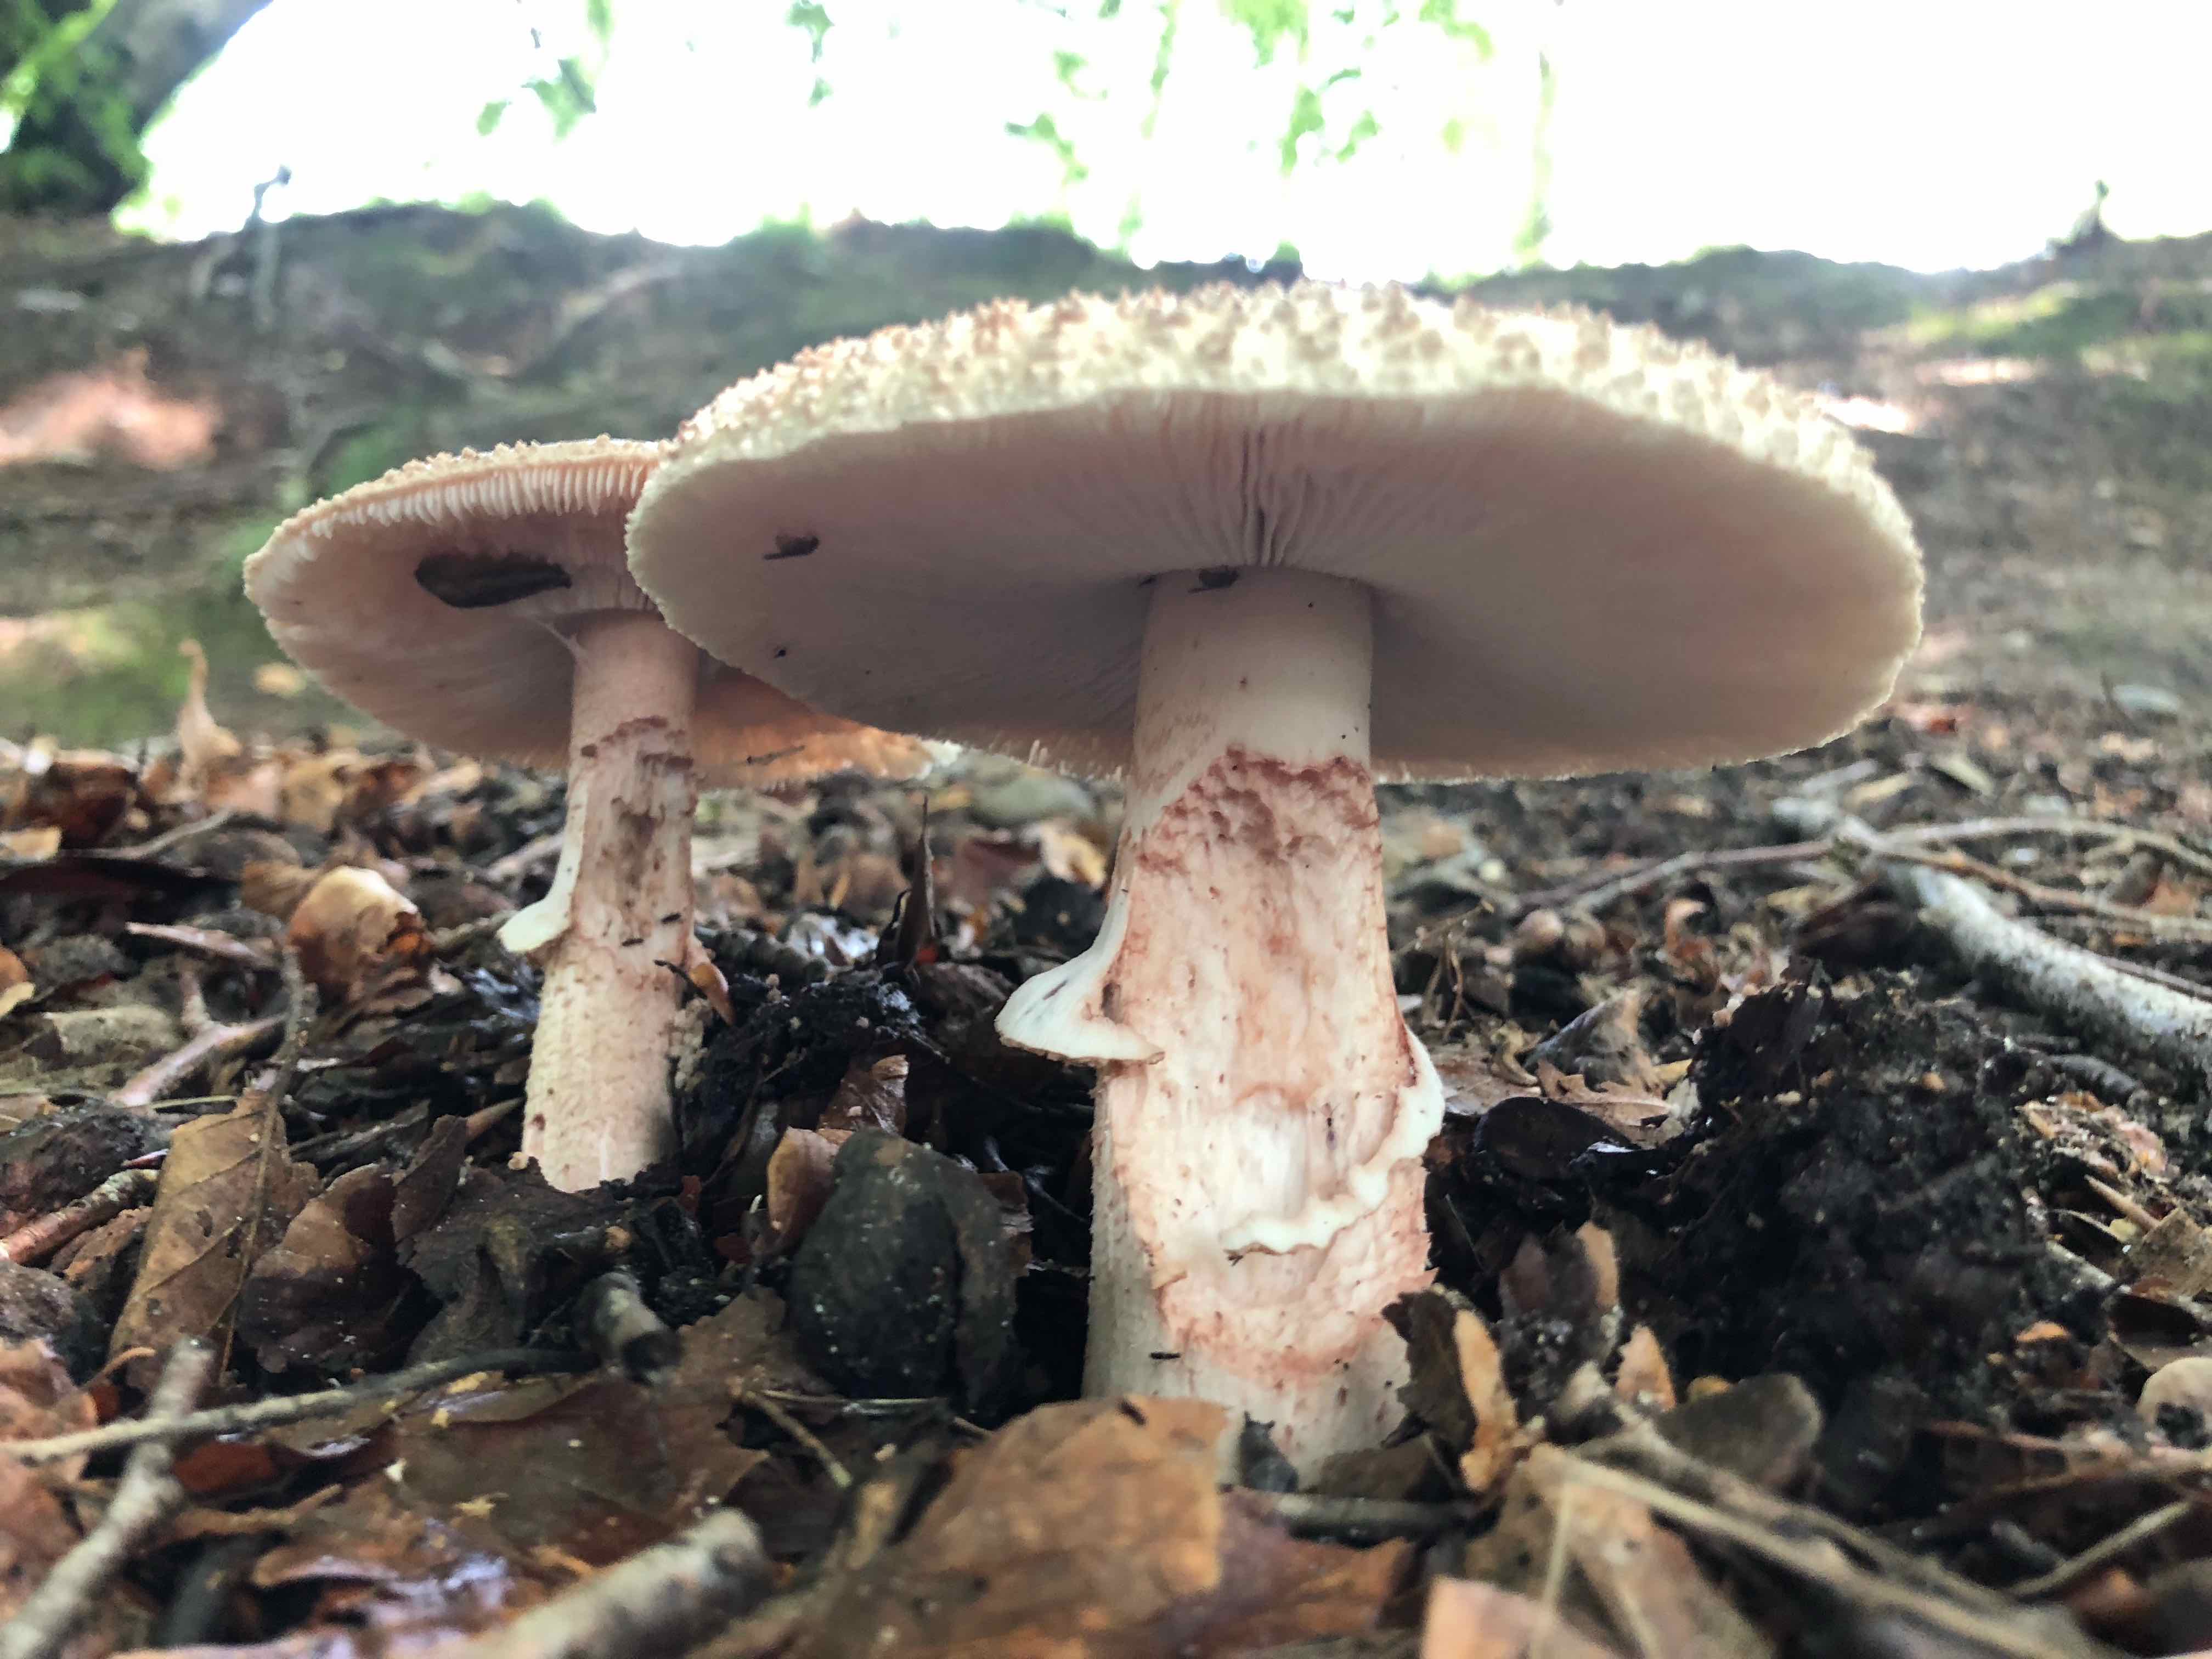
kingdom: Fungi
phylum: Basidiomycota
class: Agaricomycetes
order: Agaricales
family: Amanitaceae
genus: Amanita
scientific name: Amanita rubescens
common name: rødmende fluesvamp
